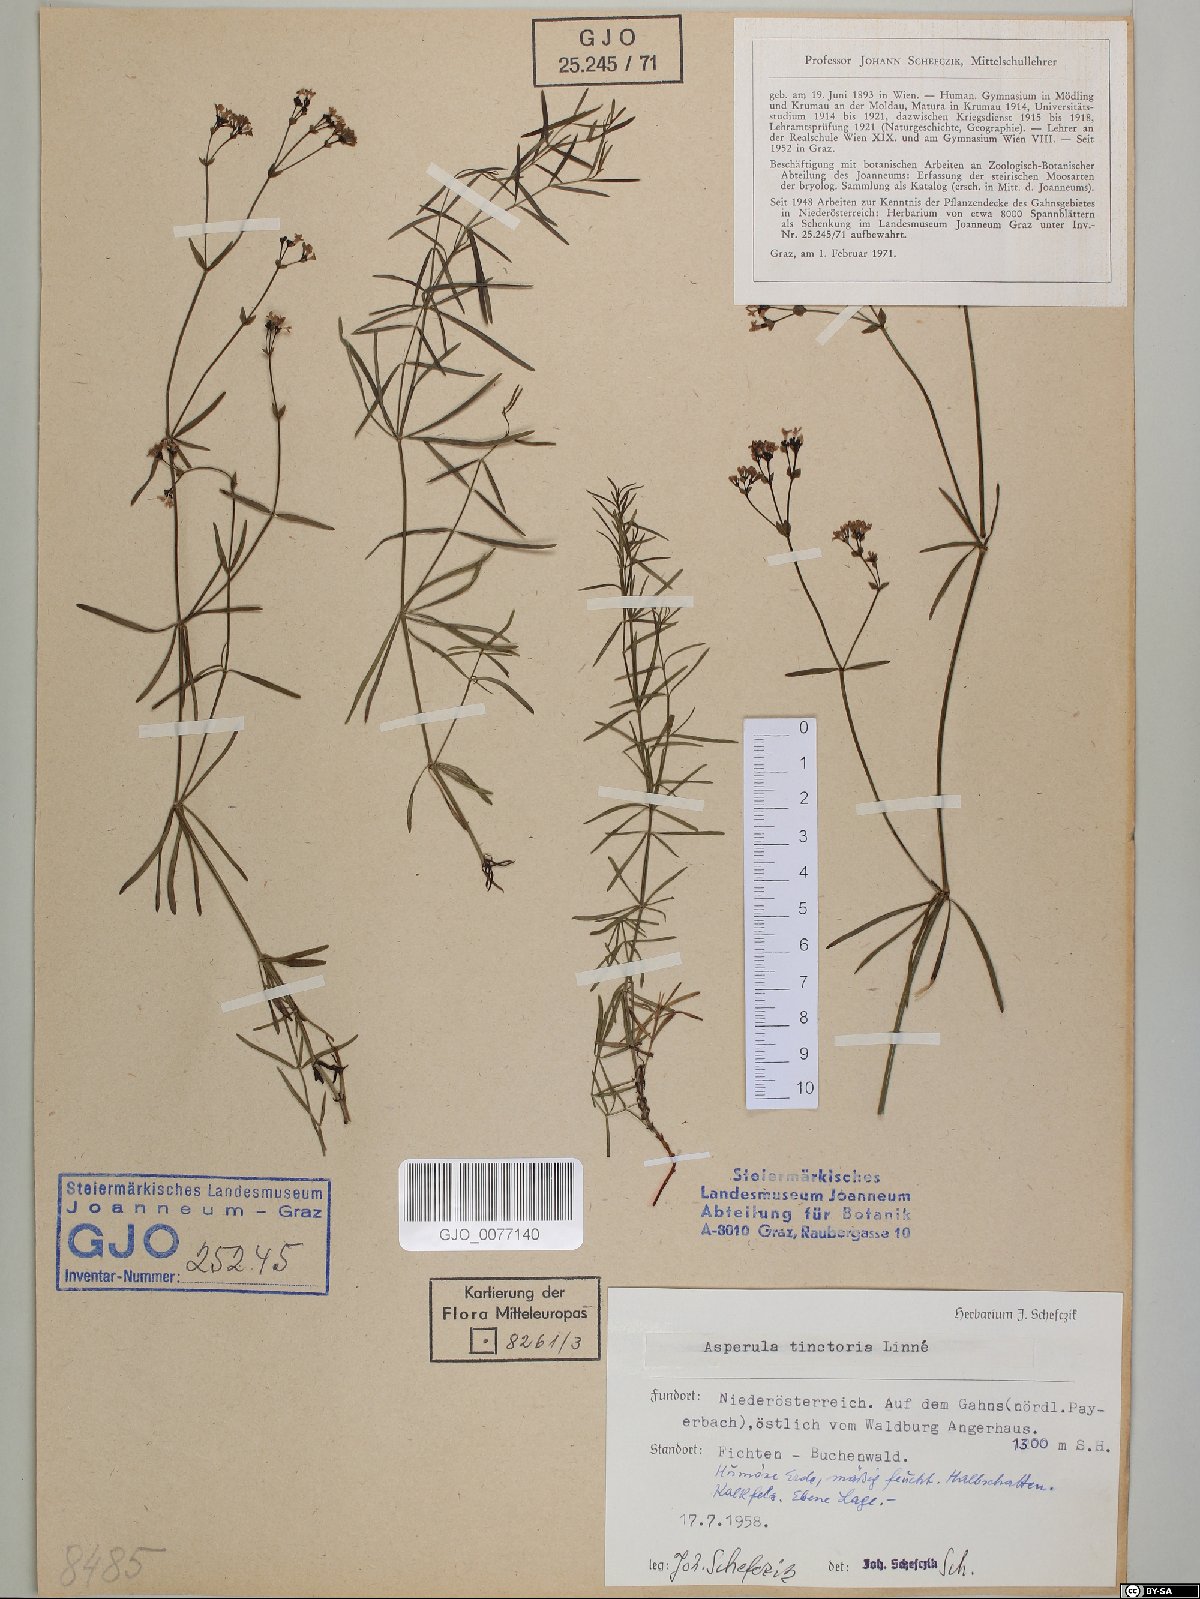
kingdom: Plantae
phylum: Tracheophyta
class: Magnoliopsida
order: Gentianales
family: Rubiaceae
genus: Asperula
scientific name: Asperula tinctoria
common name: Dyer's woodruff
